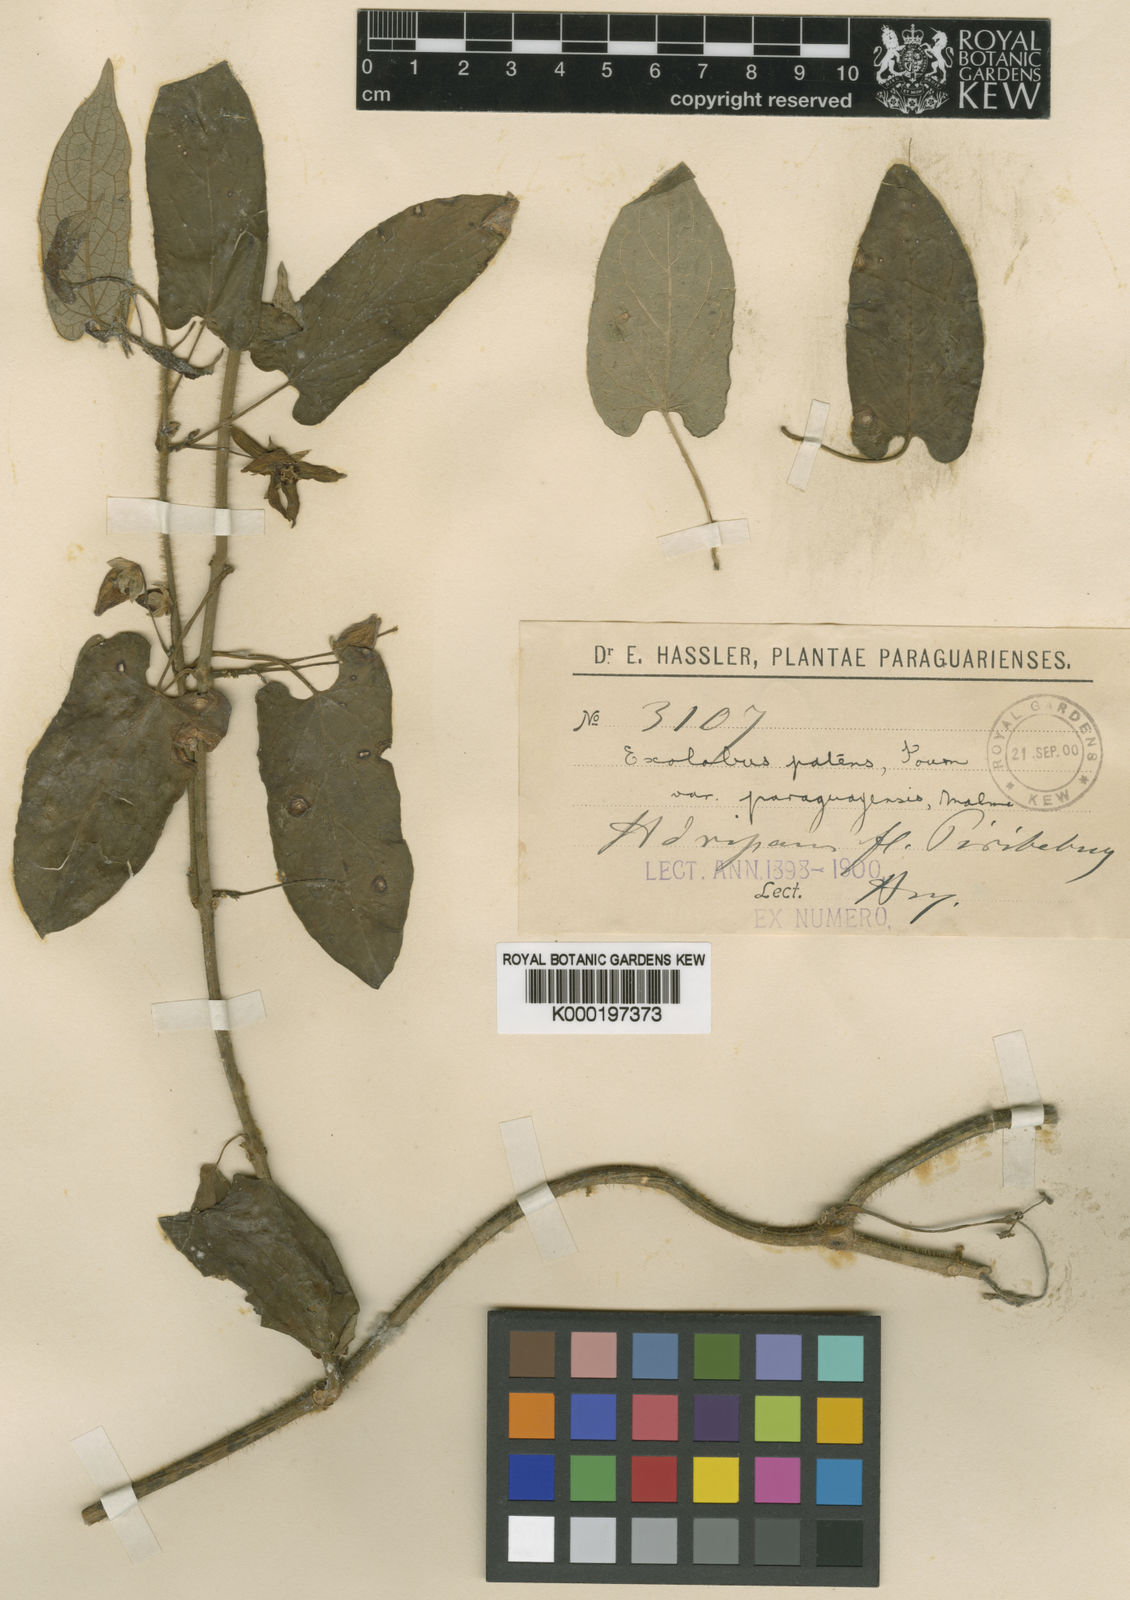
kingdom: Plantae
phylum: Tracheophyta
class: Magnoliopsida
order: Gentianales
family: Apocynaceae
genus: Gonolobus
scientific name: Gonolobus rostratus
